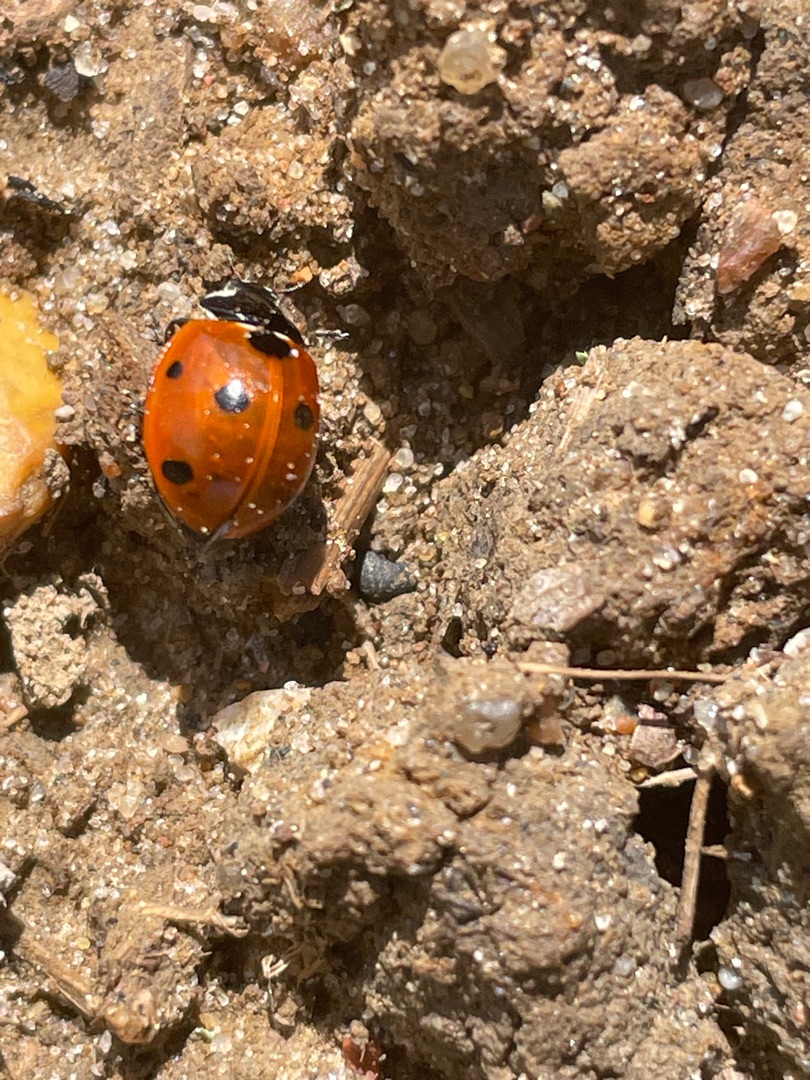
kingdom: Animalia
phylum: Arthropoda
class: Insecta
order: Coleoptera
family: Coccinellidae
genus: Coccinella
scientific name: Coccinella septempunctata
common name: Syvplettet mariehøne
